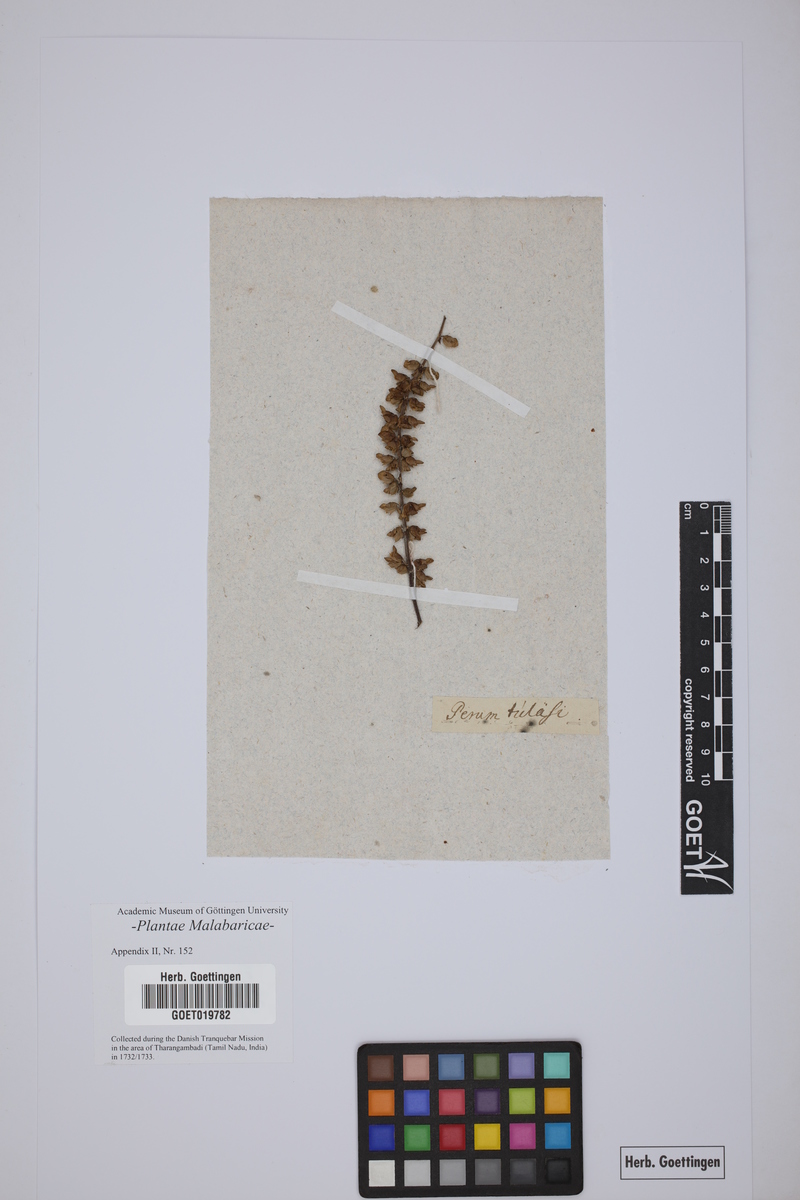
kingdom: Plantae
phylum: Tracheophyta
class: Magnoliopsida
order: Lamiales
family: Lamiaceae
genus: Equilabium
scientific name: Equilabium molle
